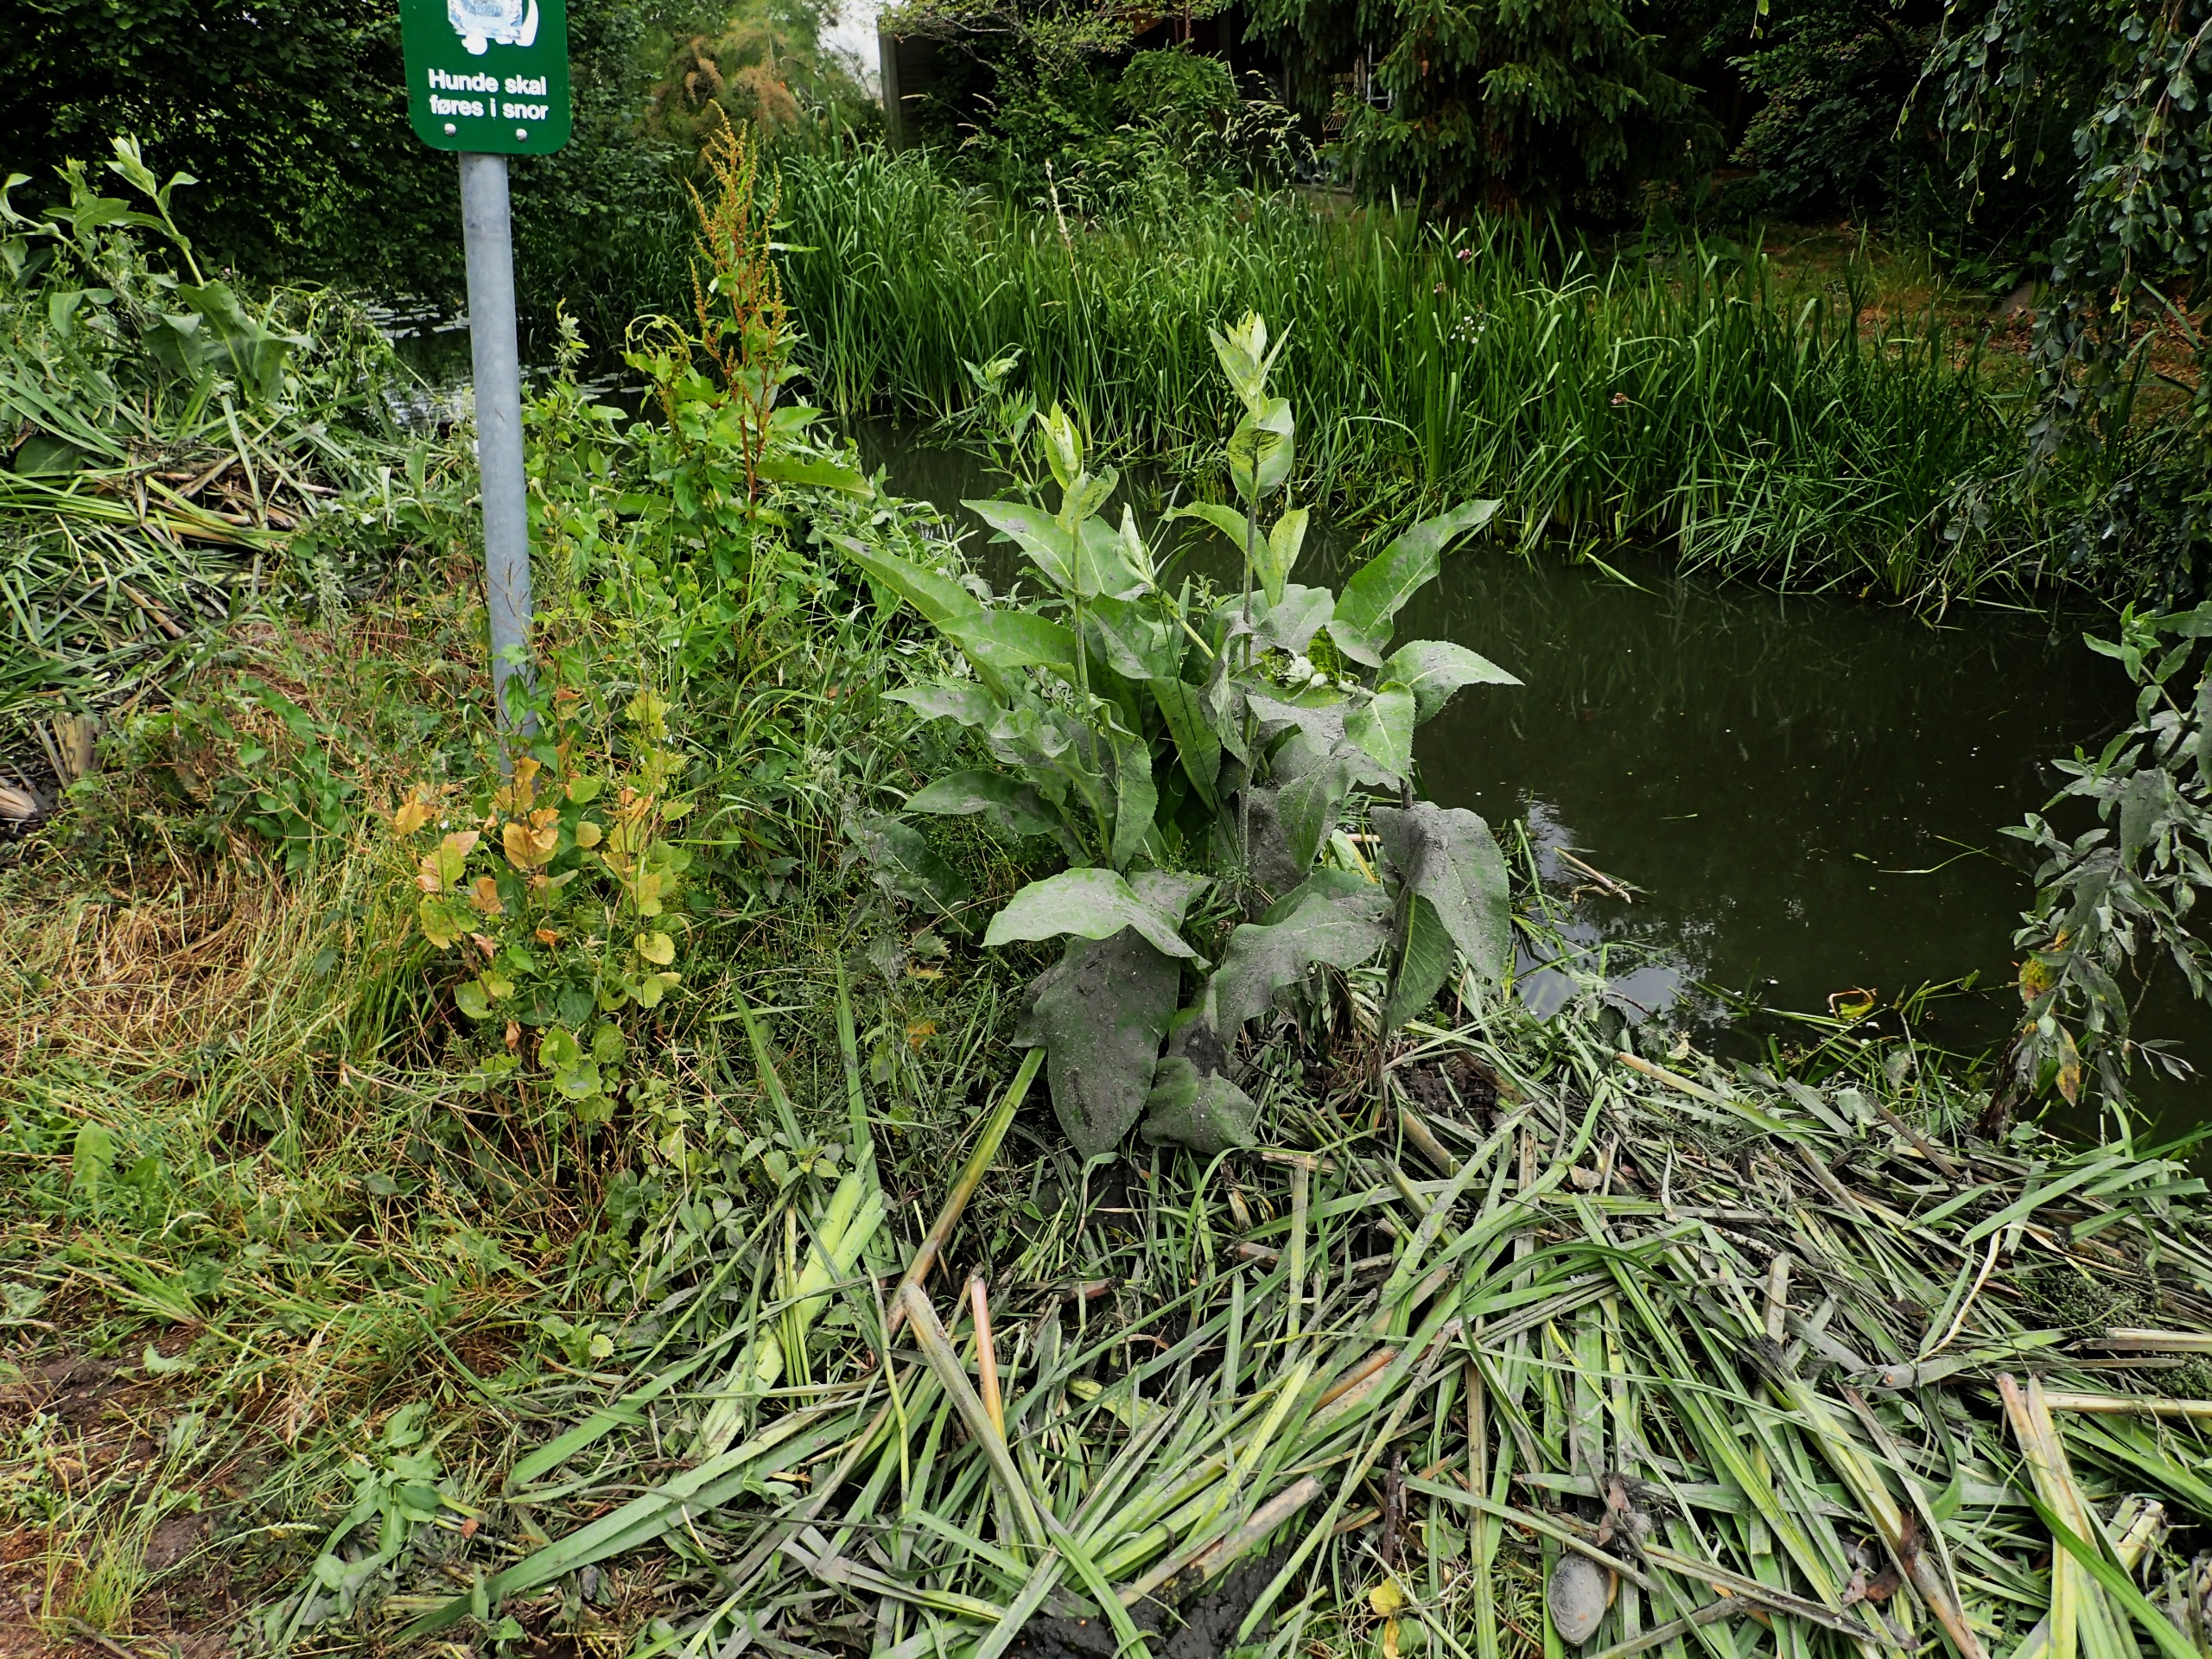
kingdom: Plantae
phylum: Tracheophyta
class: Magnoliopsida
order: Asterales
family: Asteraceae
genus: Inula
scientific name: Inula helenium
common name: Læge-alant
